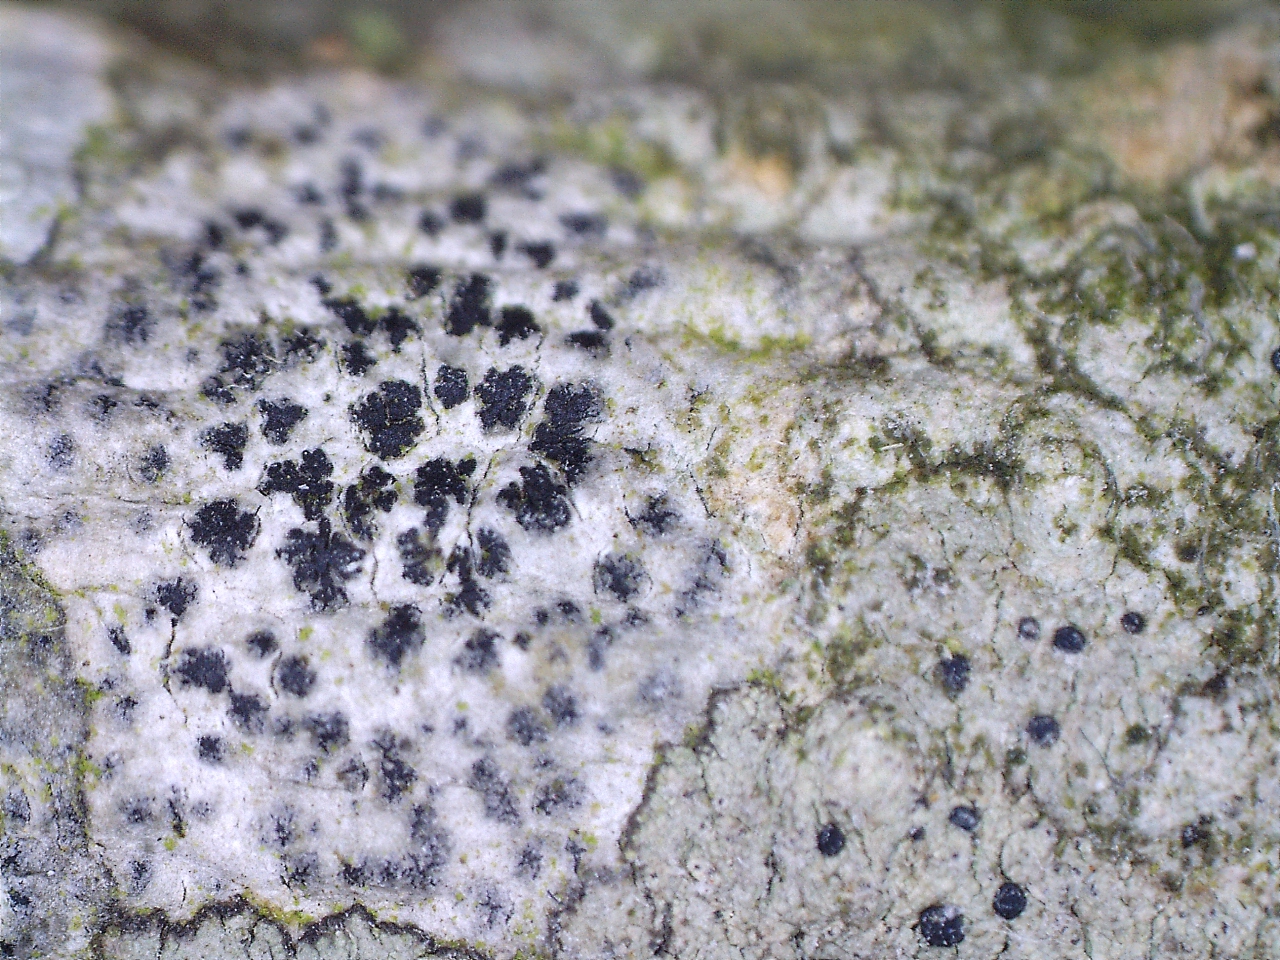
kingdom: Fungi
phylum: Ascomycota
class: Arthoniomycetes
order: Arthoniales
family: Arthoniaceae
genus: Arthonia
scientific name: Arthonia radiata
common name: stjerne-pletlav
